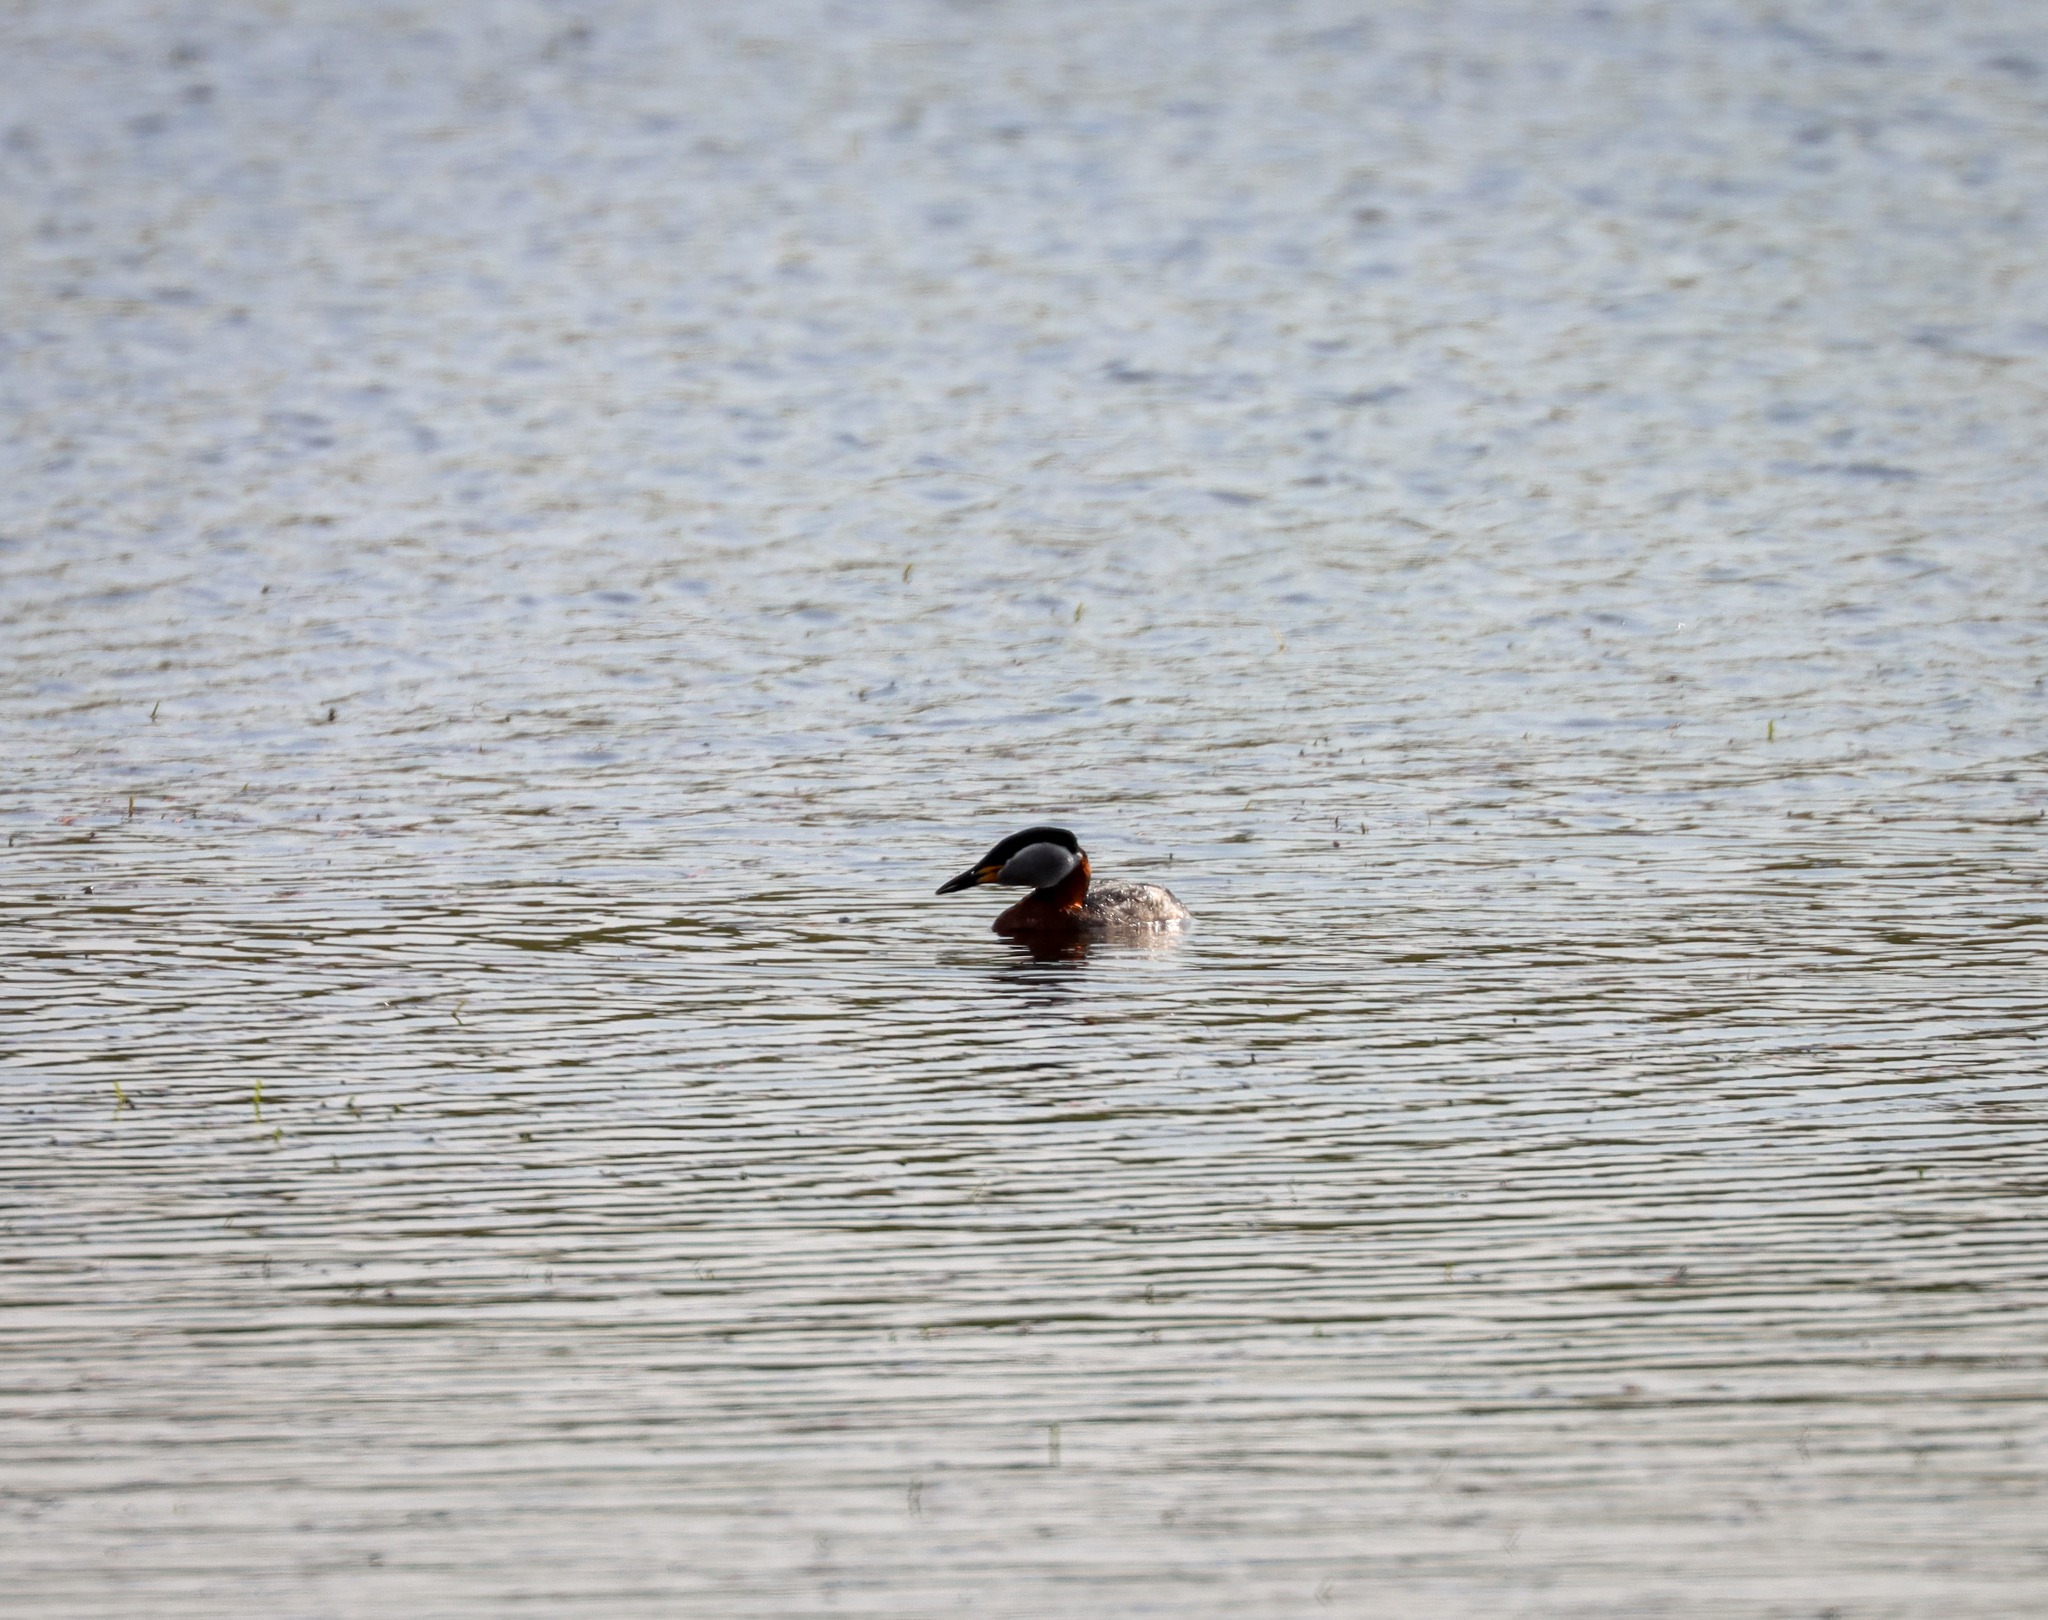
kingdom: Animalia
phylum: Chordata
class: Aves
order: Podicipediformes
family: Podicipedidae
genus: Podiceps
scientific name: Podiceps grisegena
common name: Gråstrubet lappedykker
